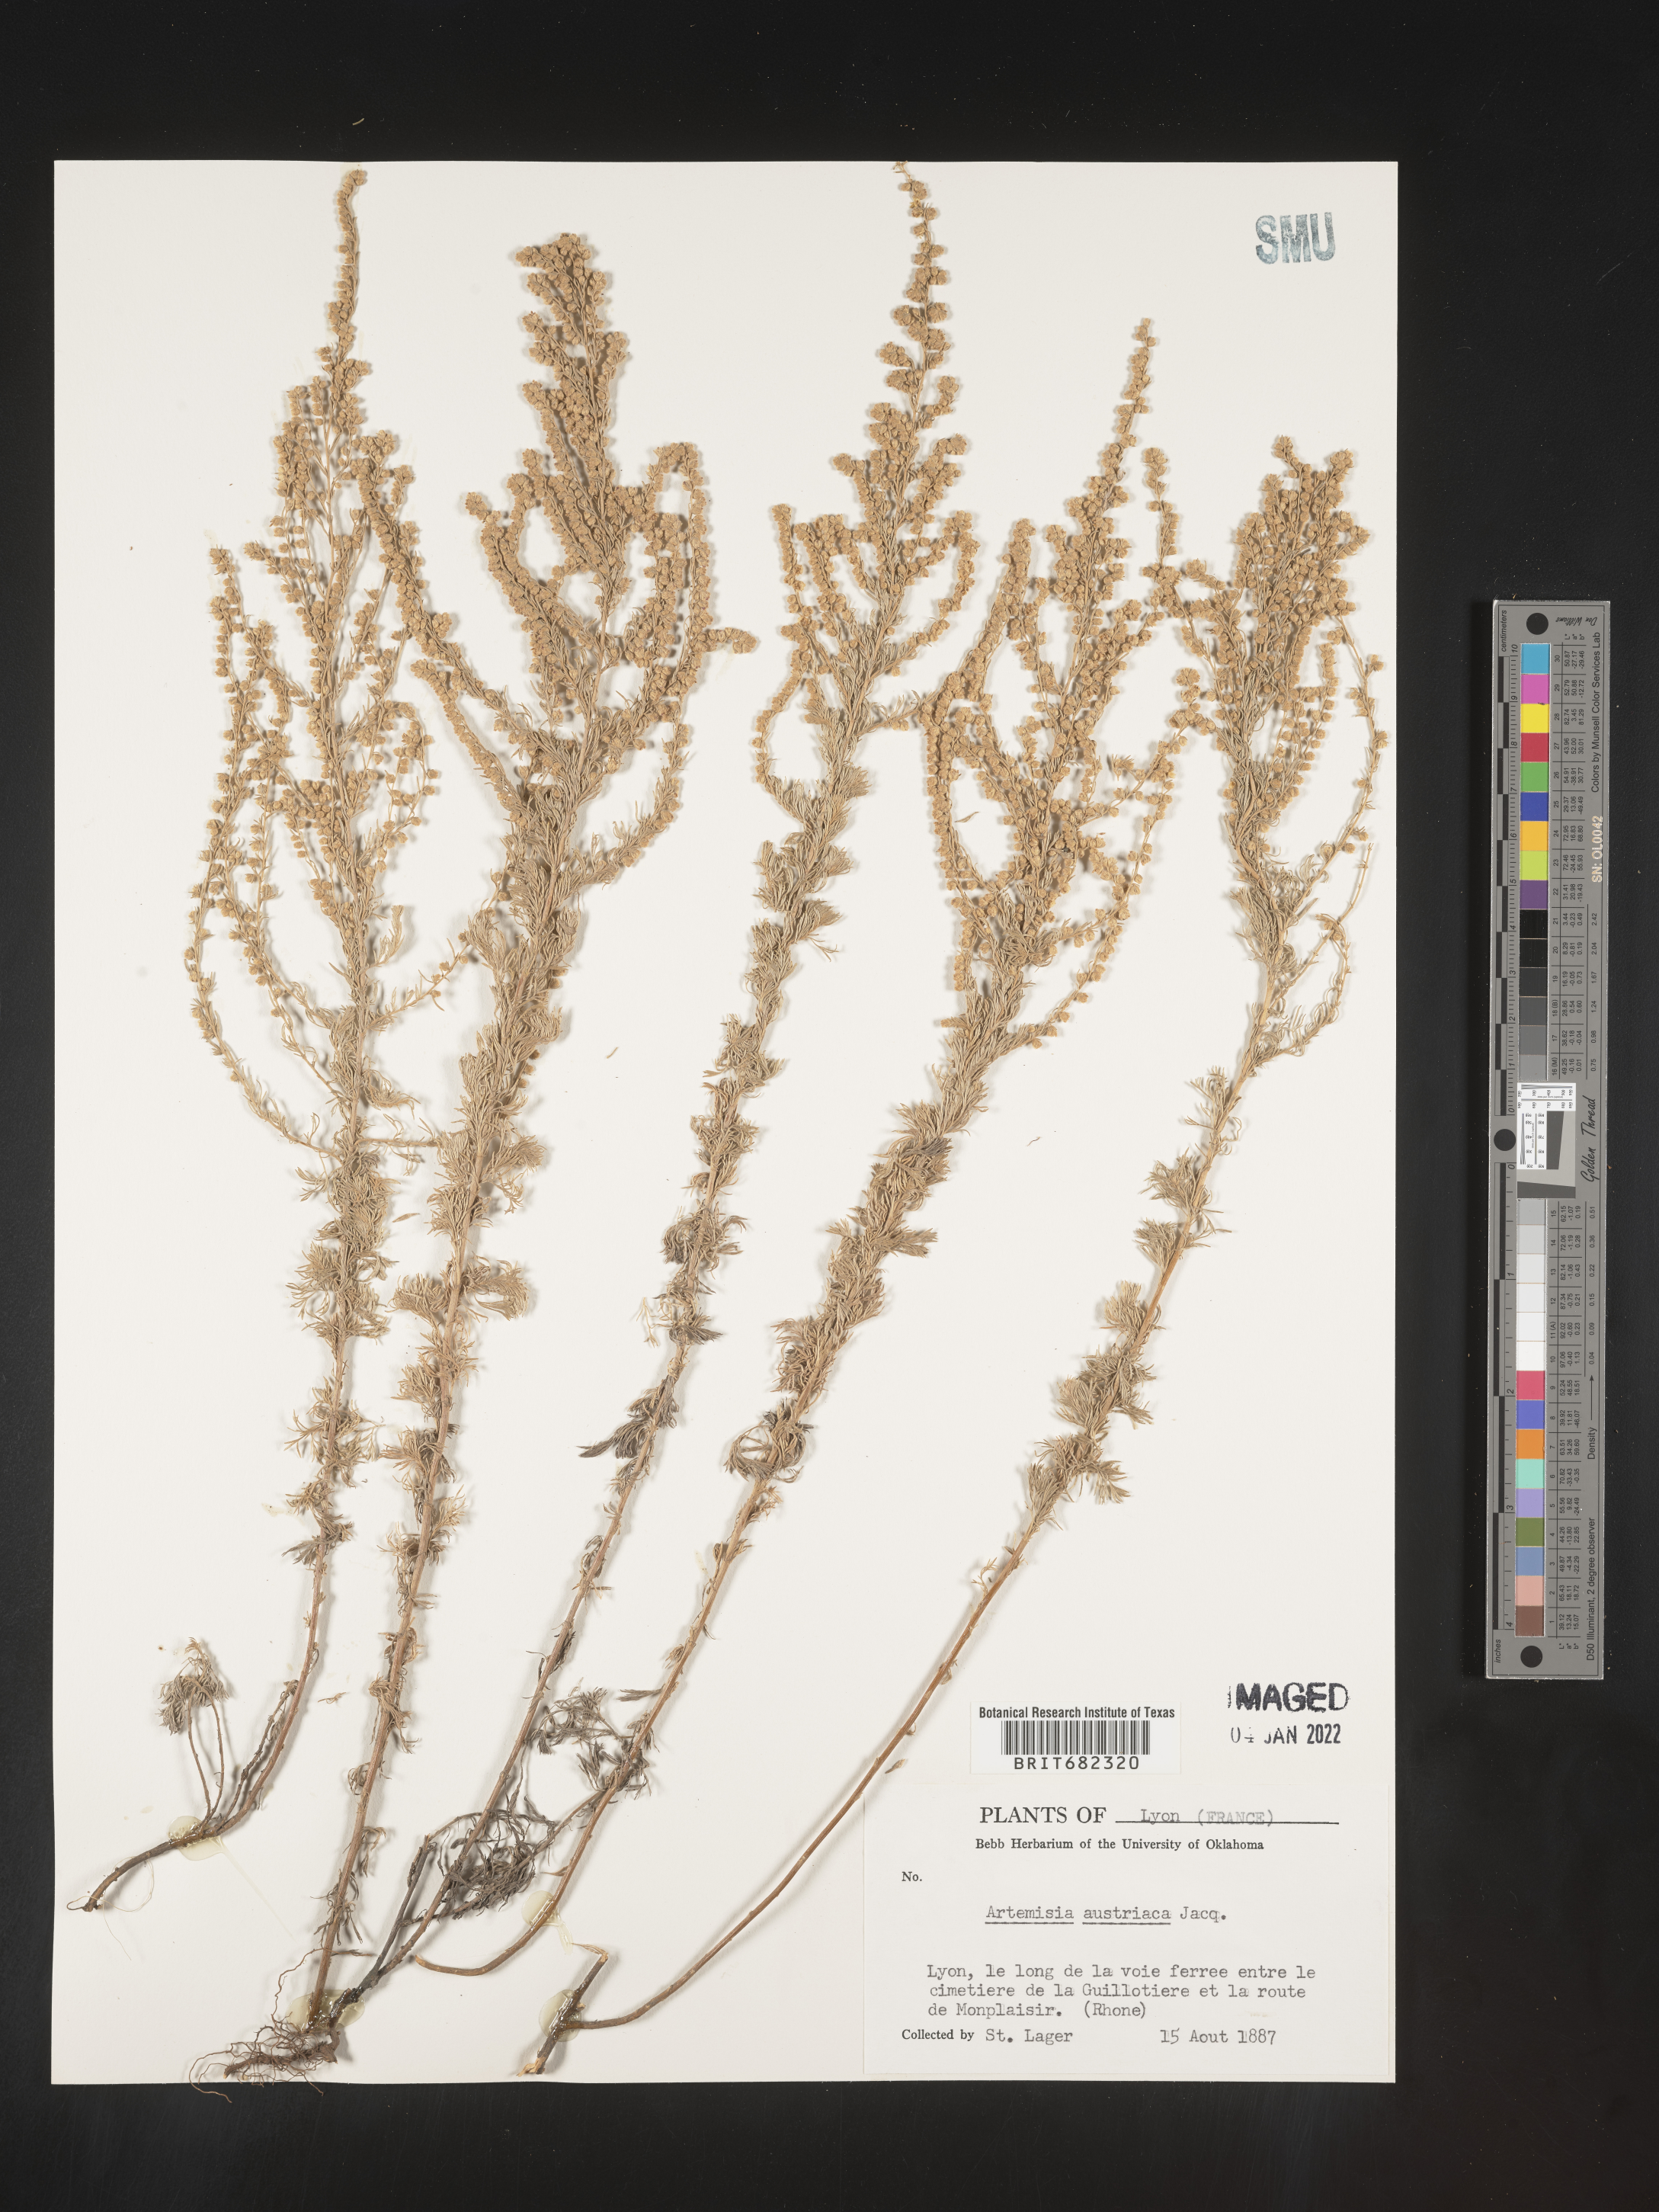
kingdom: Plantae
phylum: Tracheophyta
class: Magnoliopsida
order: Asterales
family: Asteraceae
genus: Artemisia
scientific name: Artemisia
